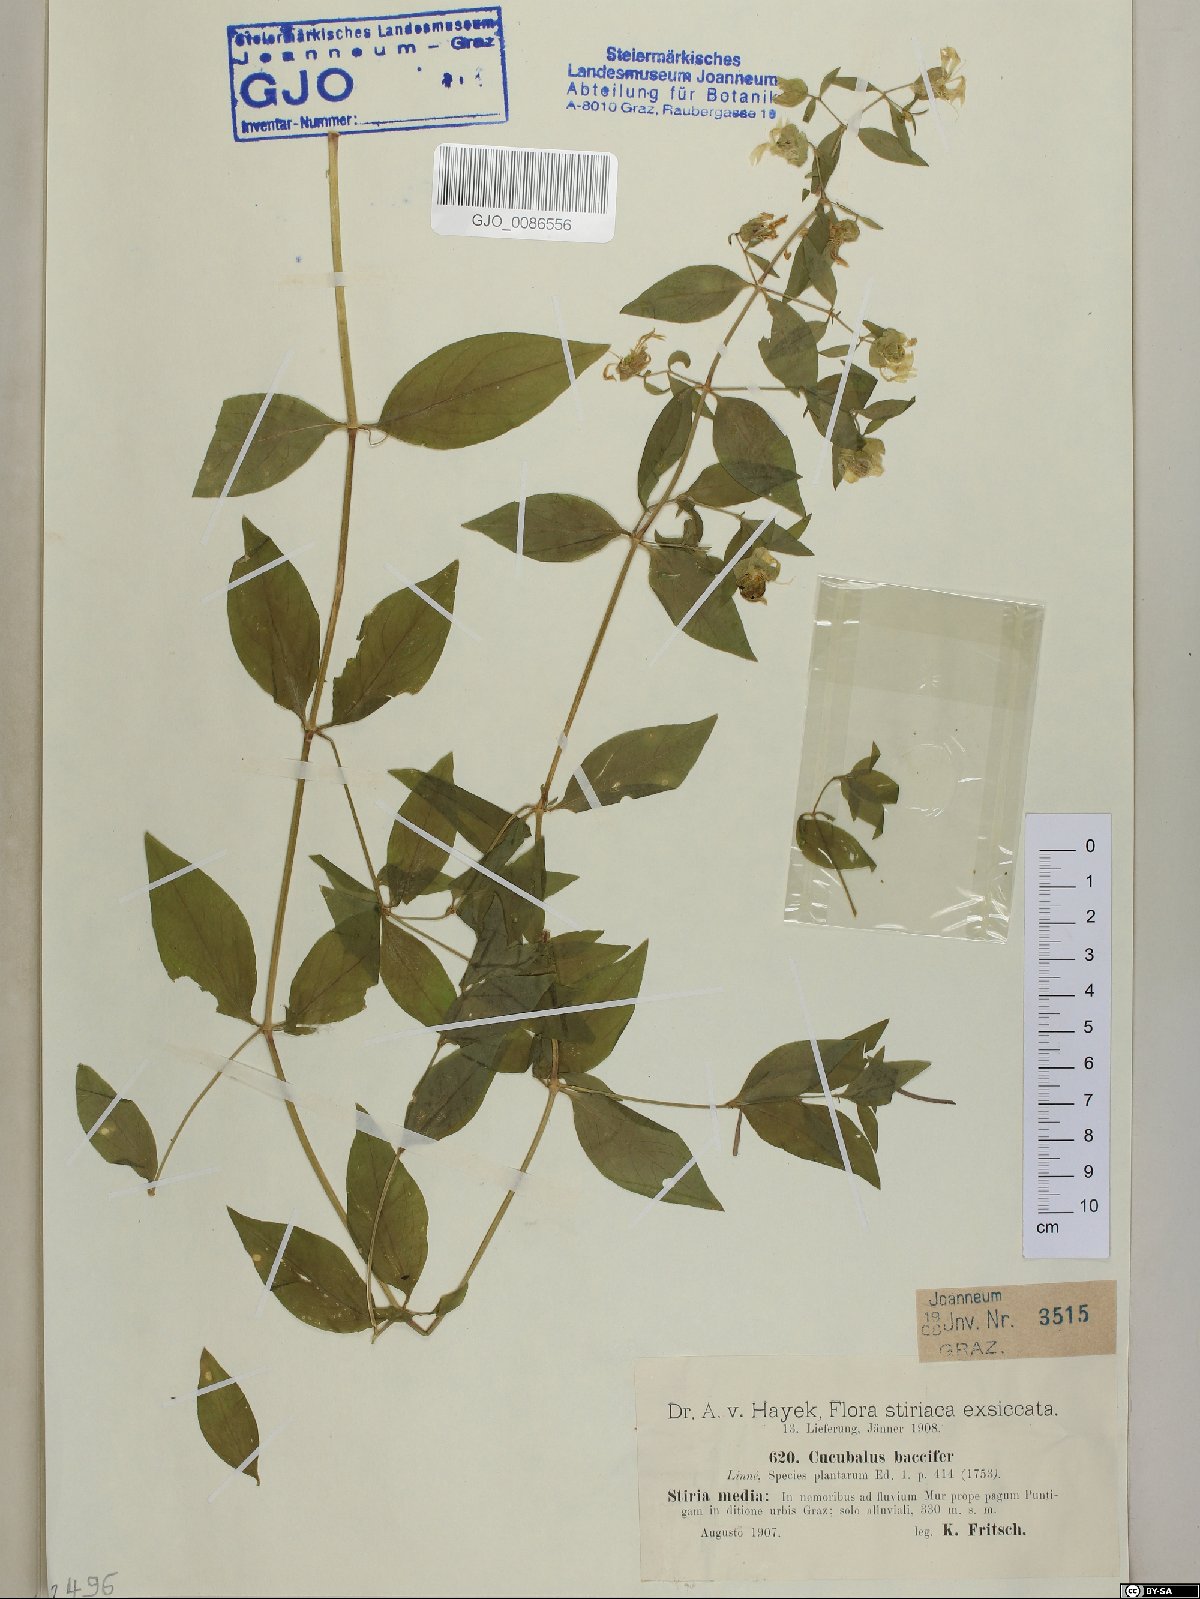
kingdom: Plantae
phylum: Tracheophyta
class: Magnoliopsida
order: Caryophyllales
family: Caryophyllaceae
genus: Silene
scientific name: Silene baccifera
